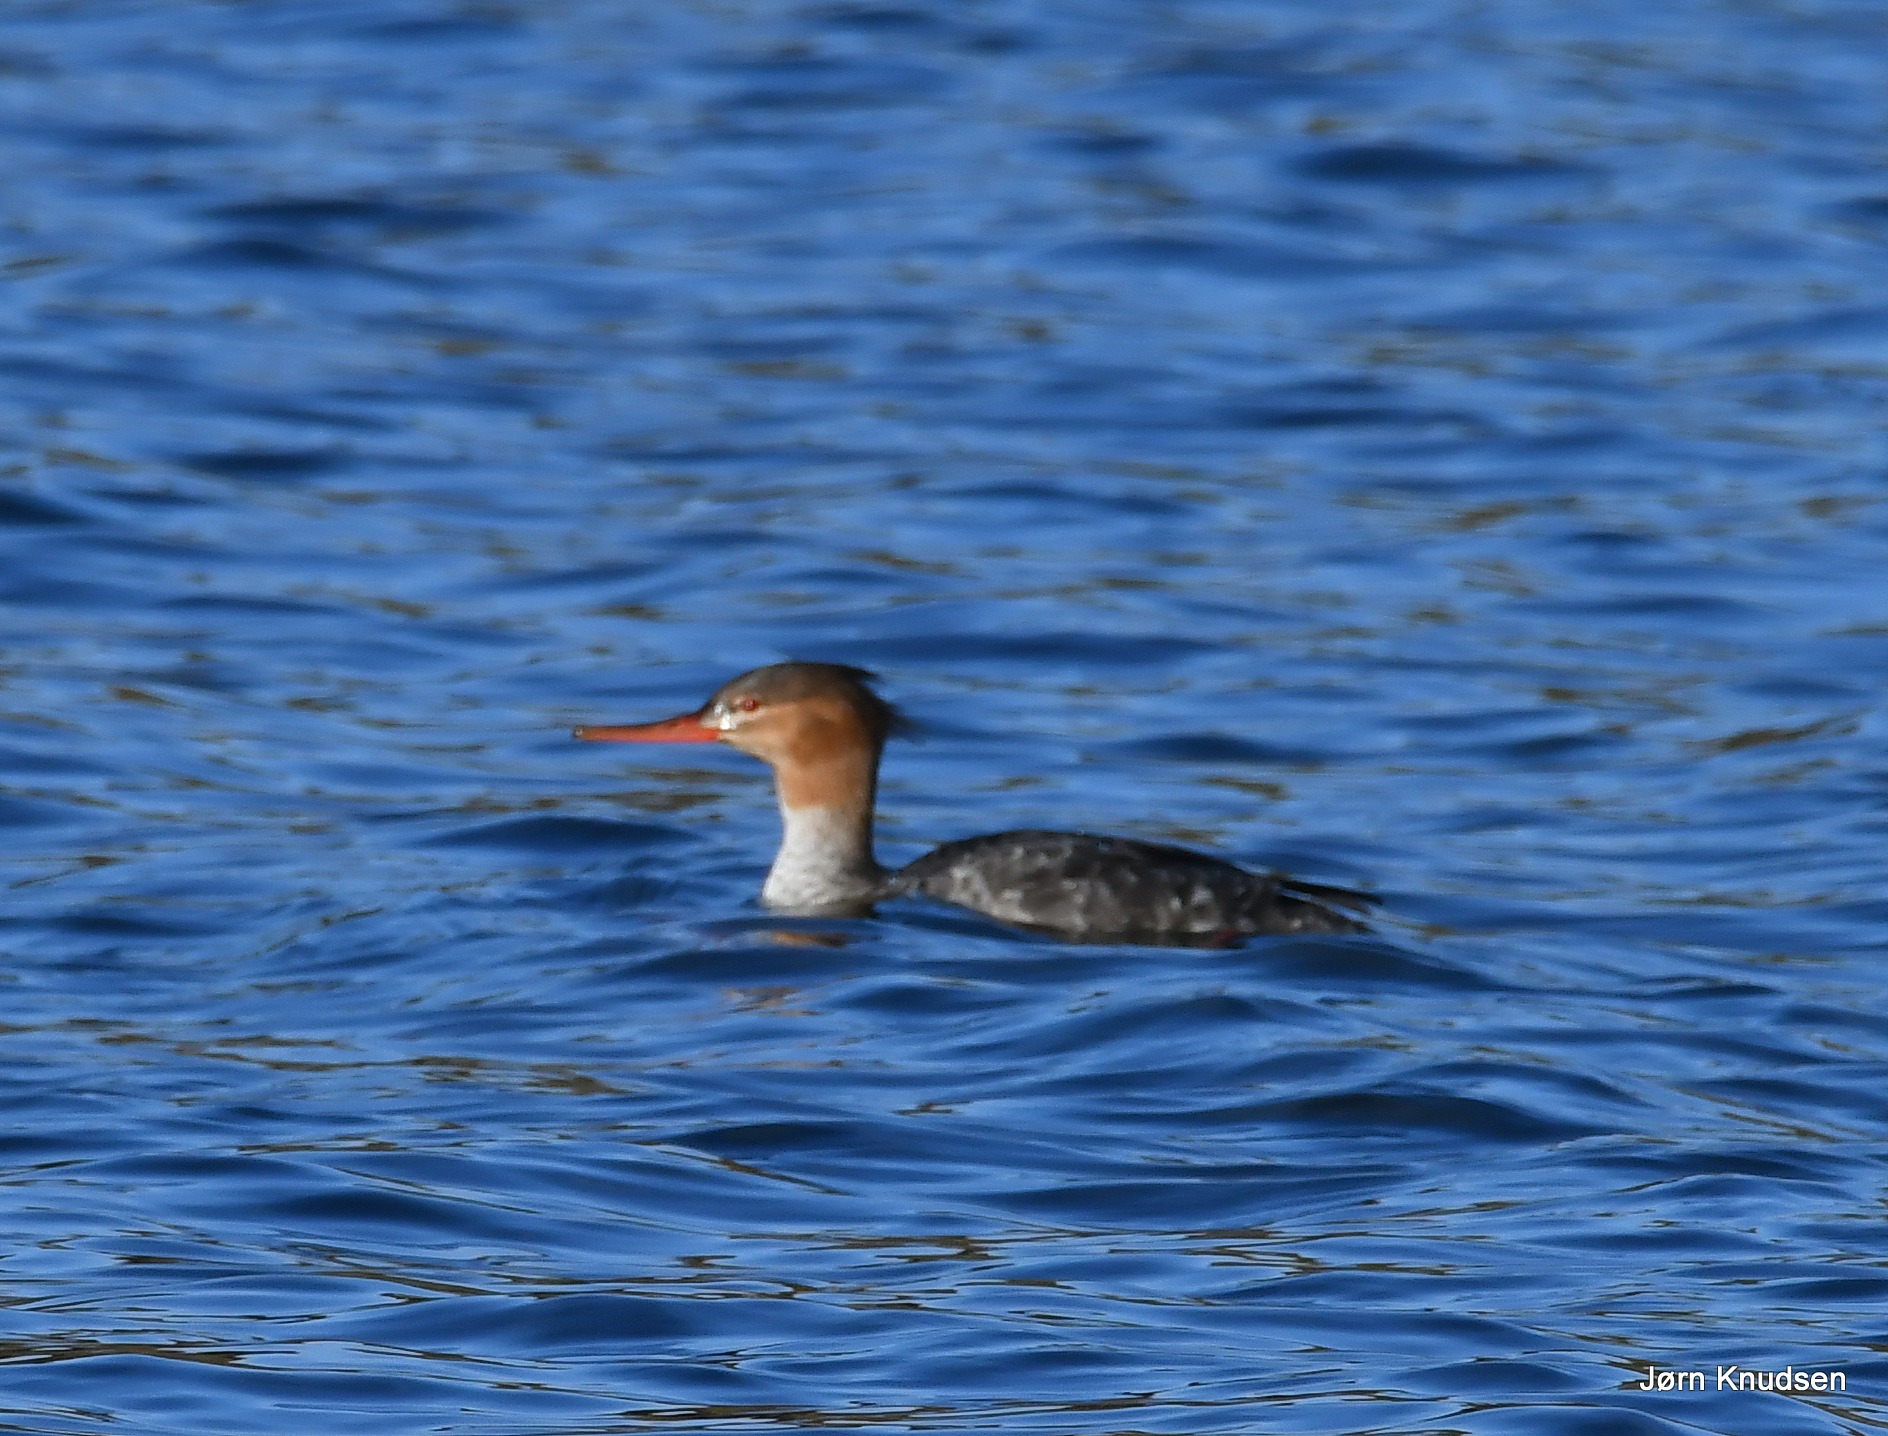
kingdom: Animalia
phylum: Chordata
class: Aves
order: Anseriformes
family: Anatidae
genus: Mergus
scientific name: Mergus serrator
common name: Toppet skallesluger
